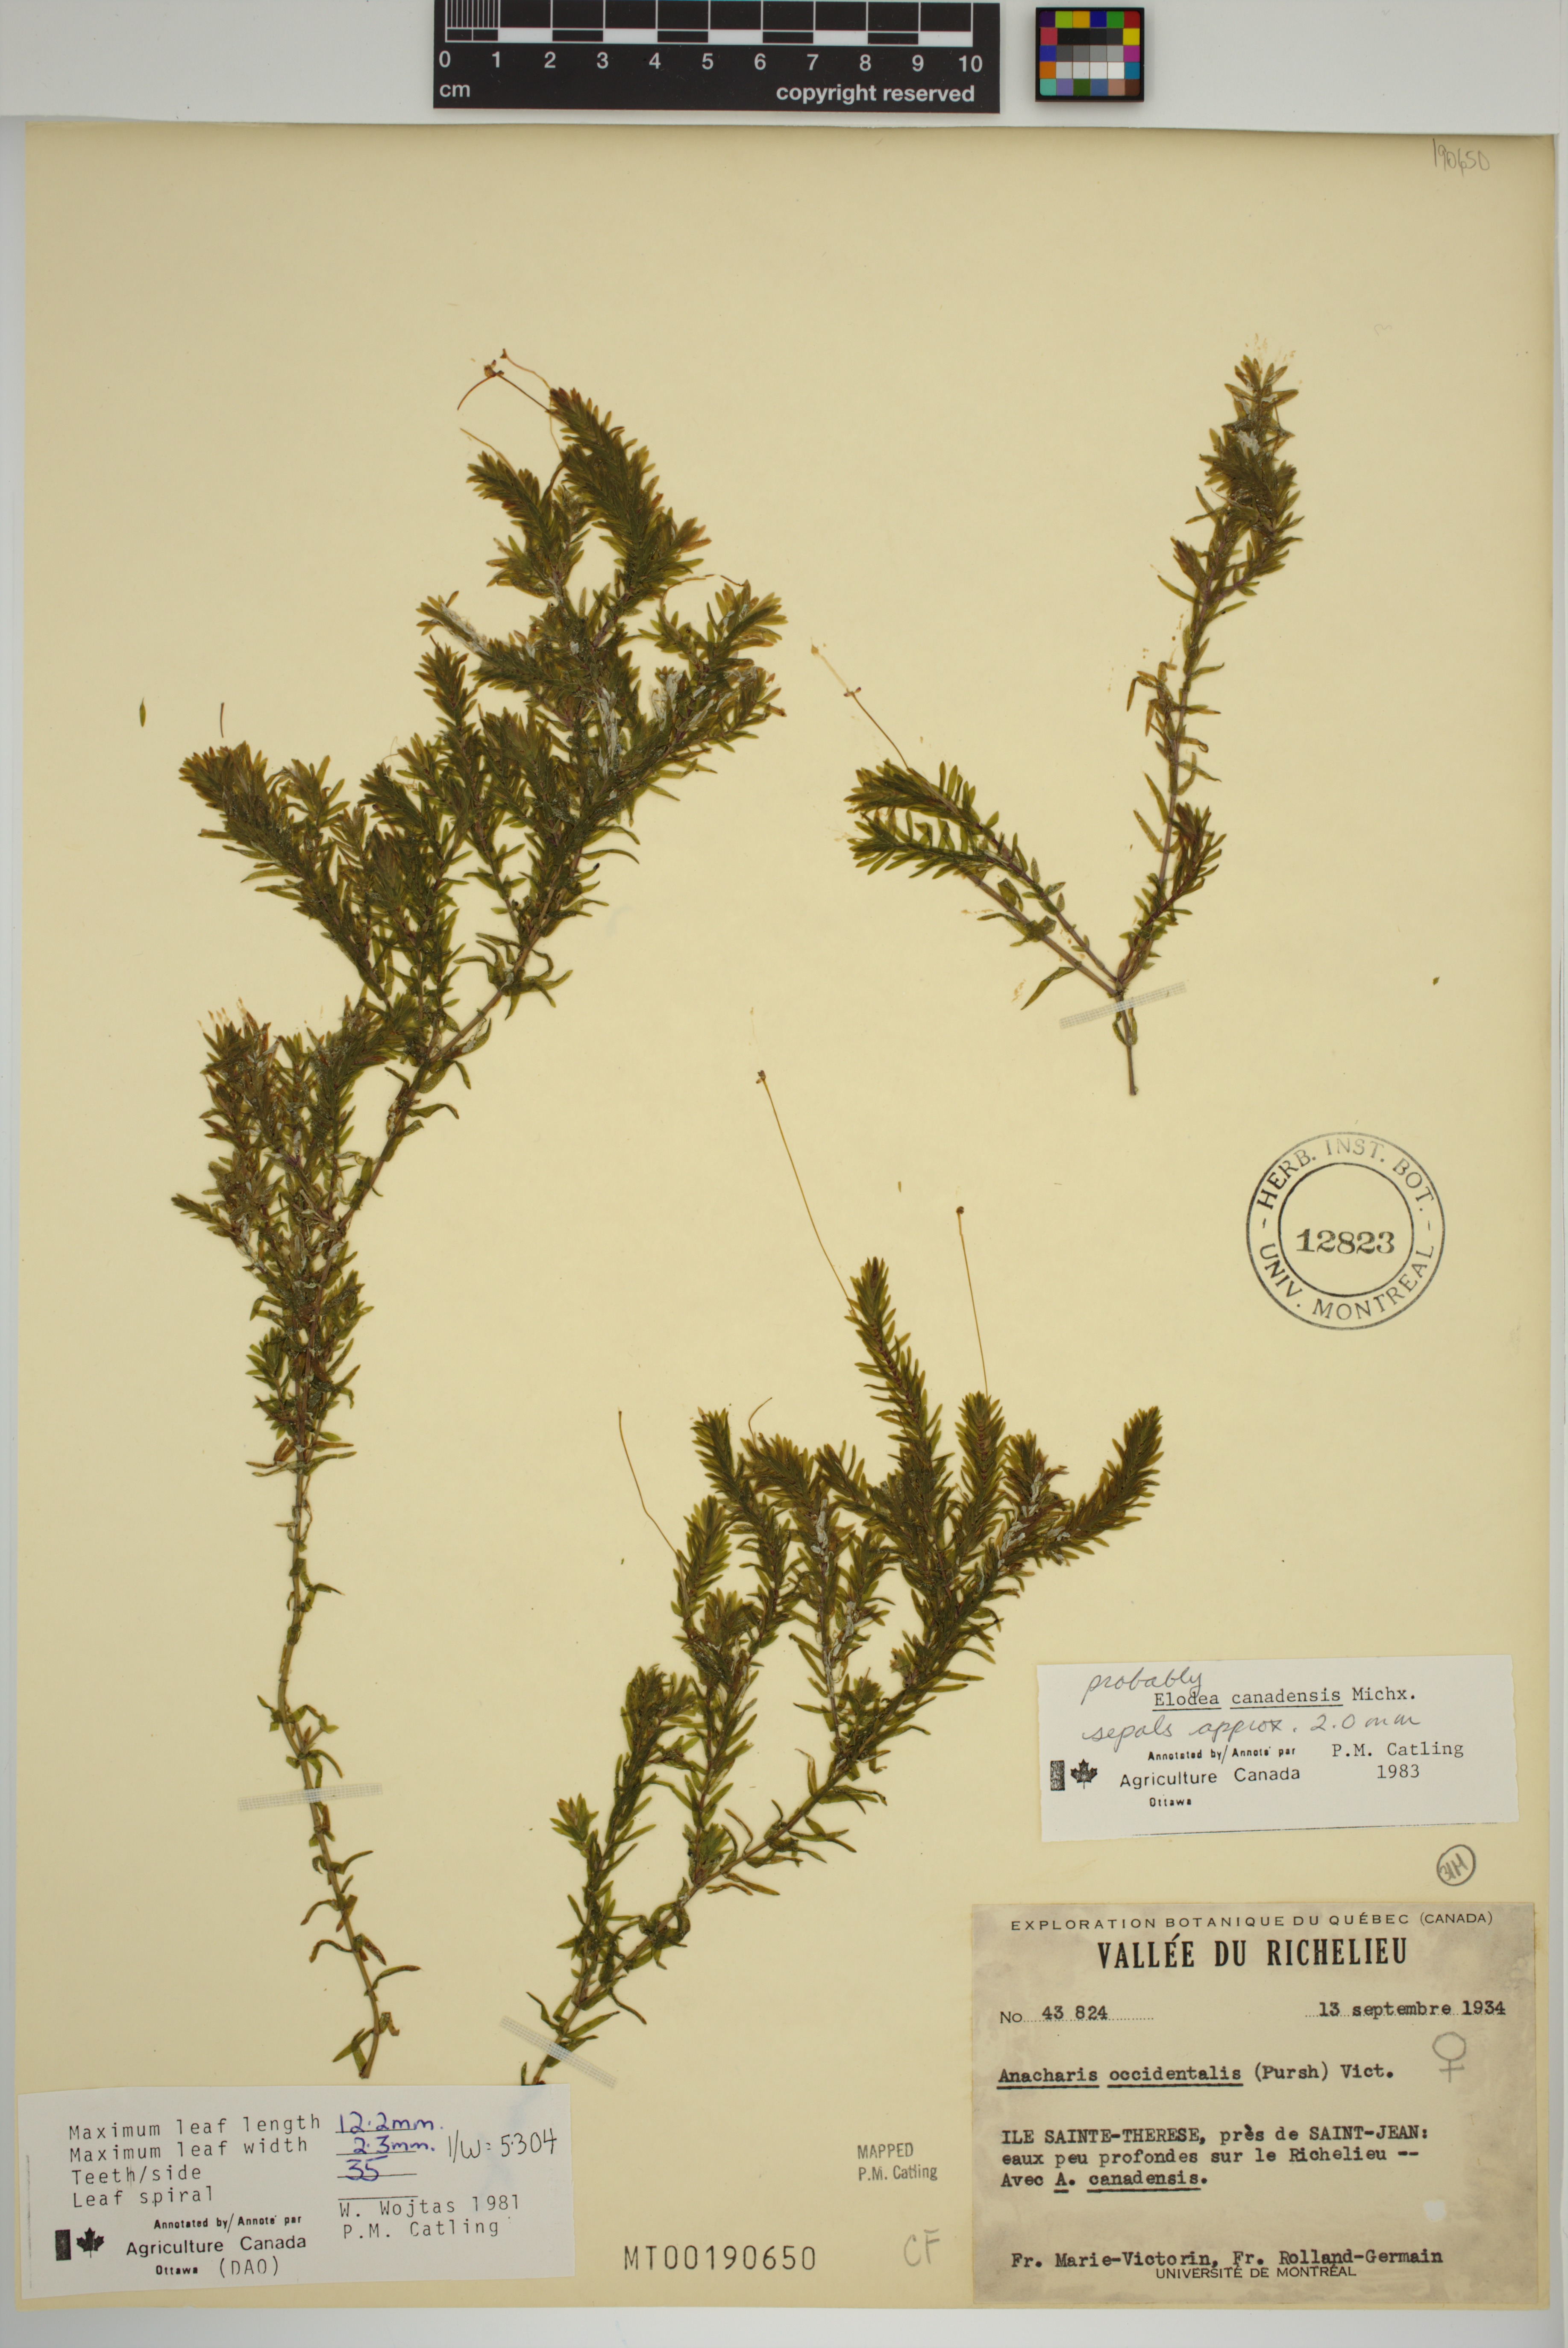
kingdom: Plantae
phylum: Tracheophyta
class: Liliopsida
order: Alismatales
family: Hydrocharitaceae
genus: Elodea
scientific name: Elodea canadensis
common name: Canadian waterweed
